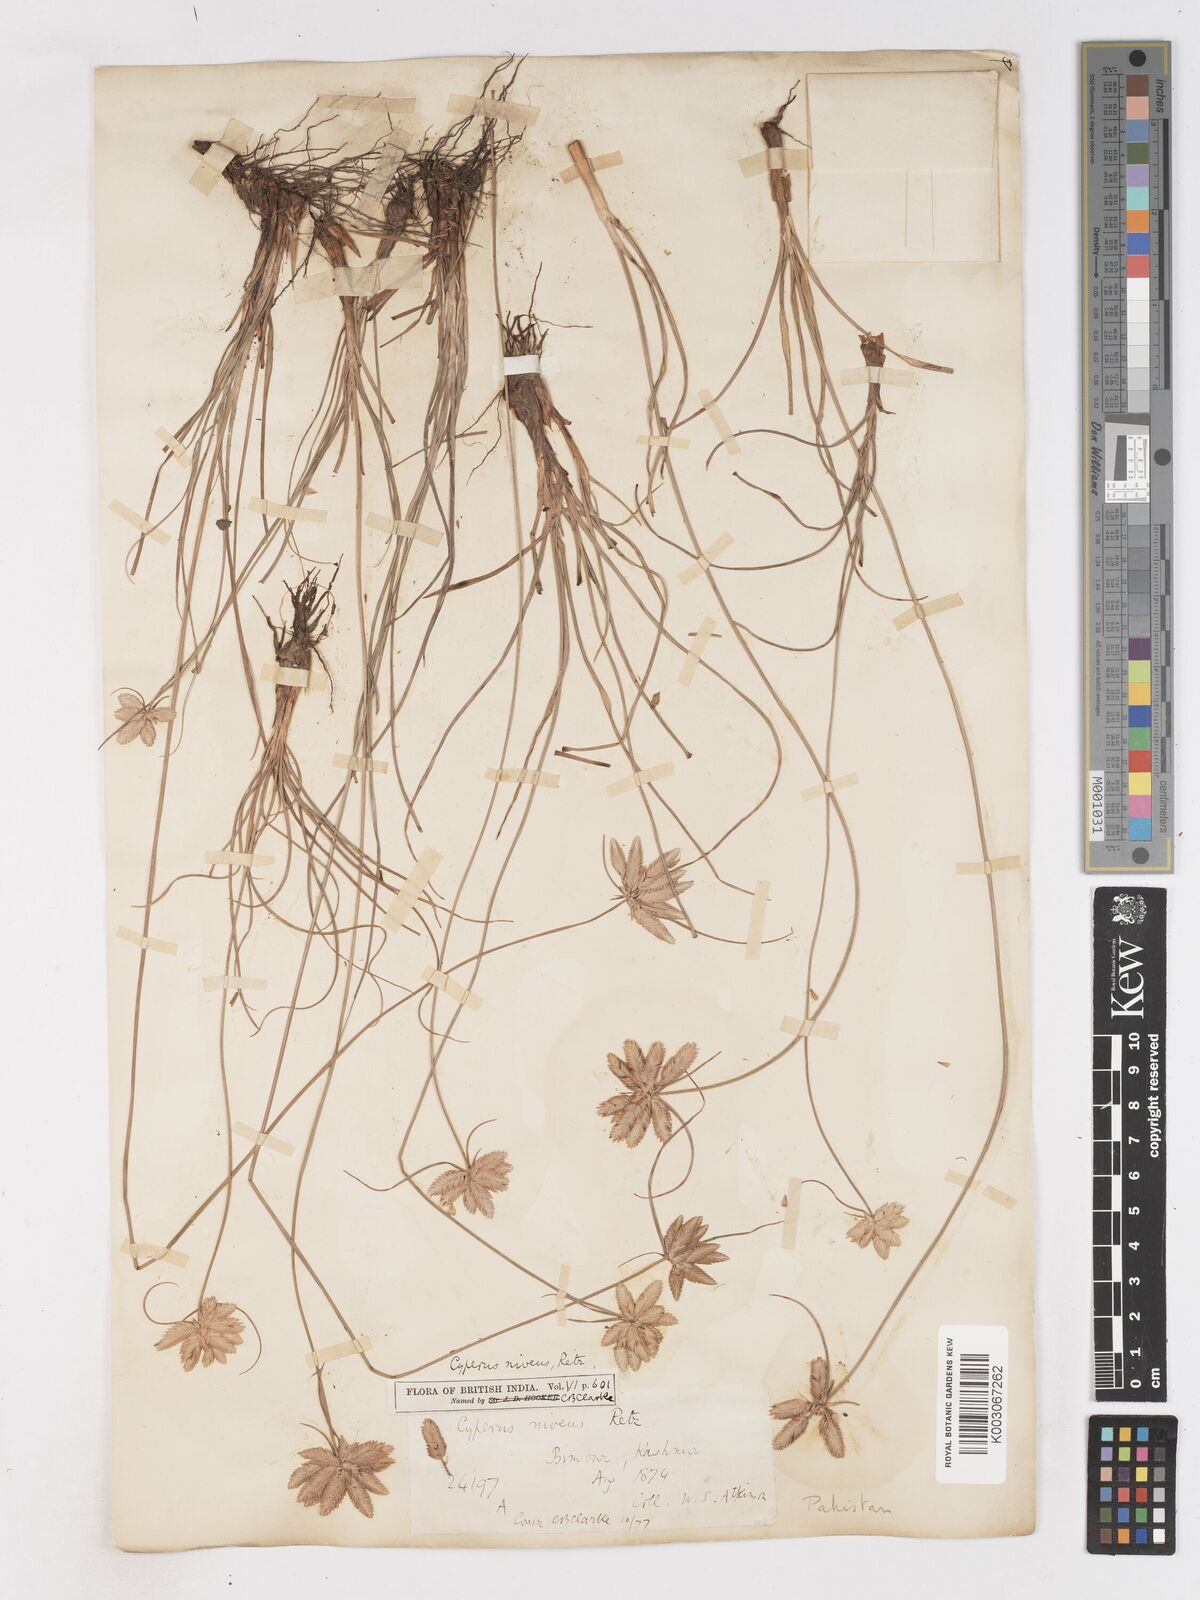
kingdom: Plantae
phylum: Tracheophyta
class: Liliopsida
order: Poales
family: Cyperaceae
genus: Cyperus
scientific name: Cyperus niveus
